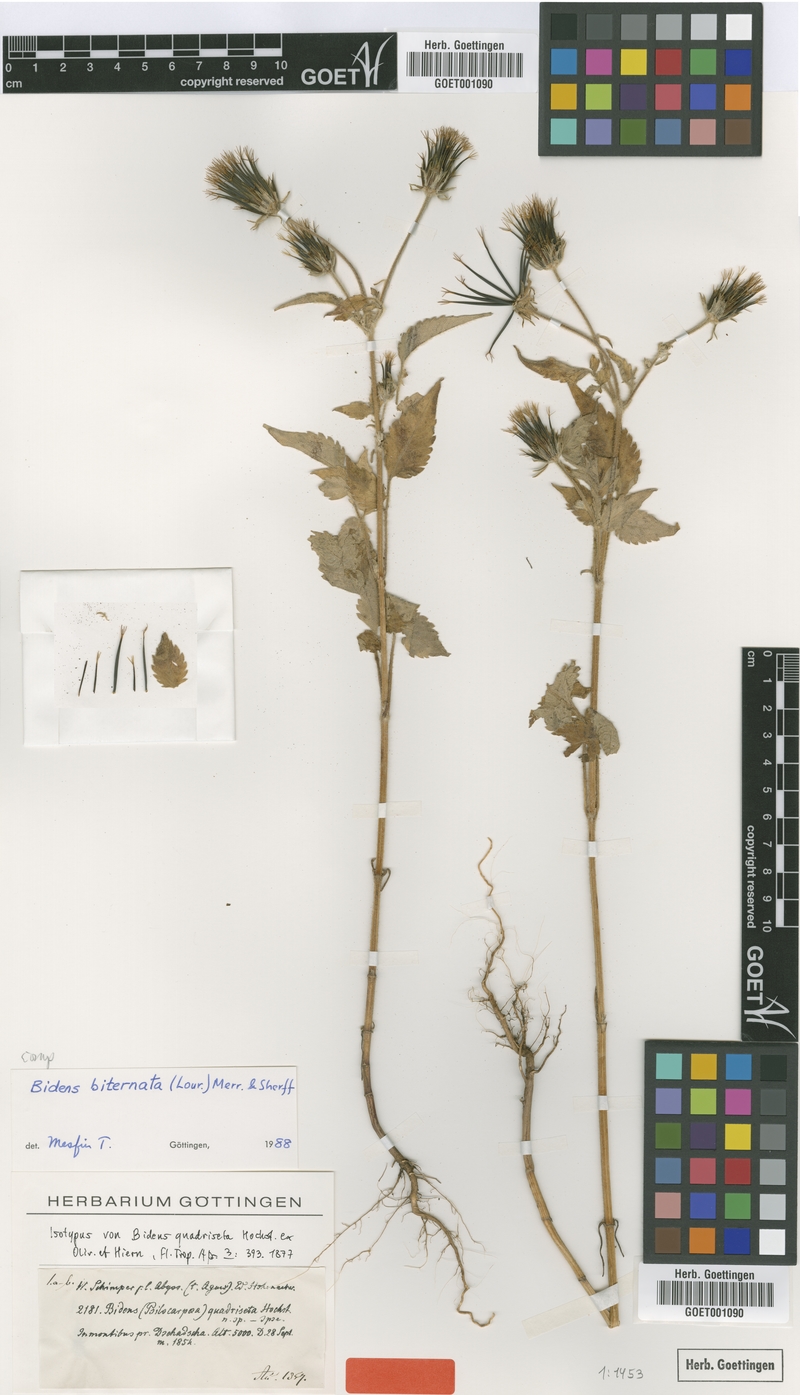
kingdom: Plantae
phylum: Tracheophyta
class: Magnoliopsida
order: Asterales
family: Asteraceae
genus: Bidens
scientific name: Bidens biternata
